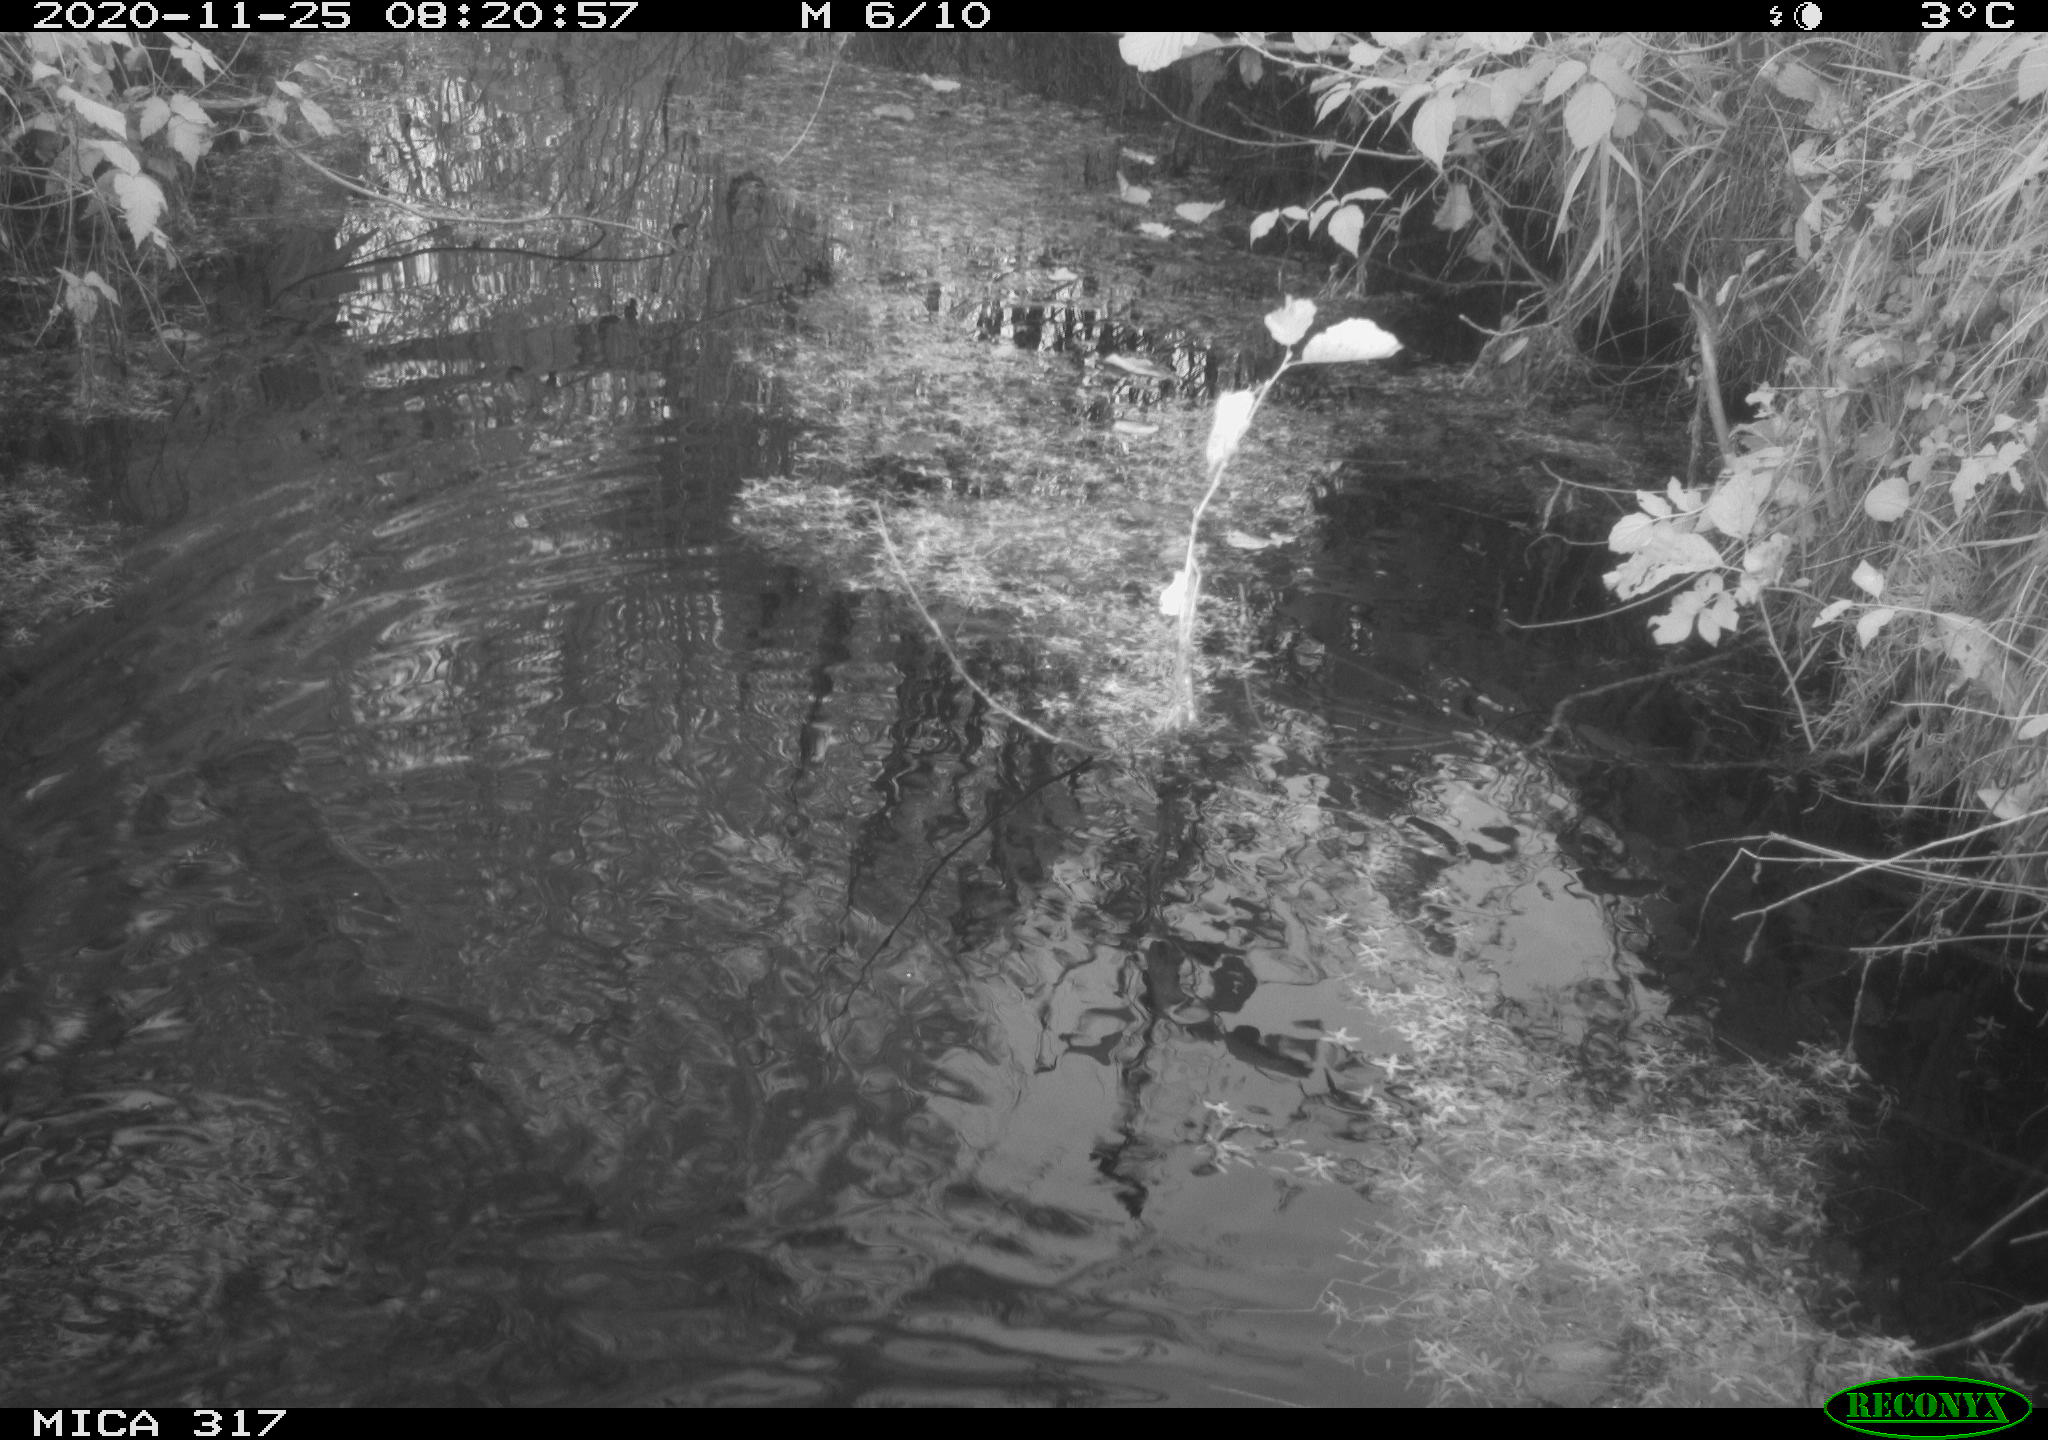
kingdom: Animalia
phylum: Chordata
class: Aves
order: Gruiformes
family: Rallidae
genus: Gallinula
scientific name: Gallinula chloropus
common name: Common moorhen
